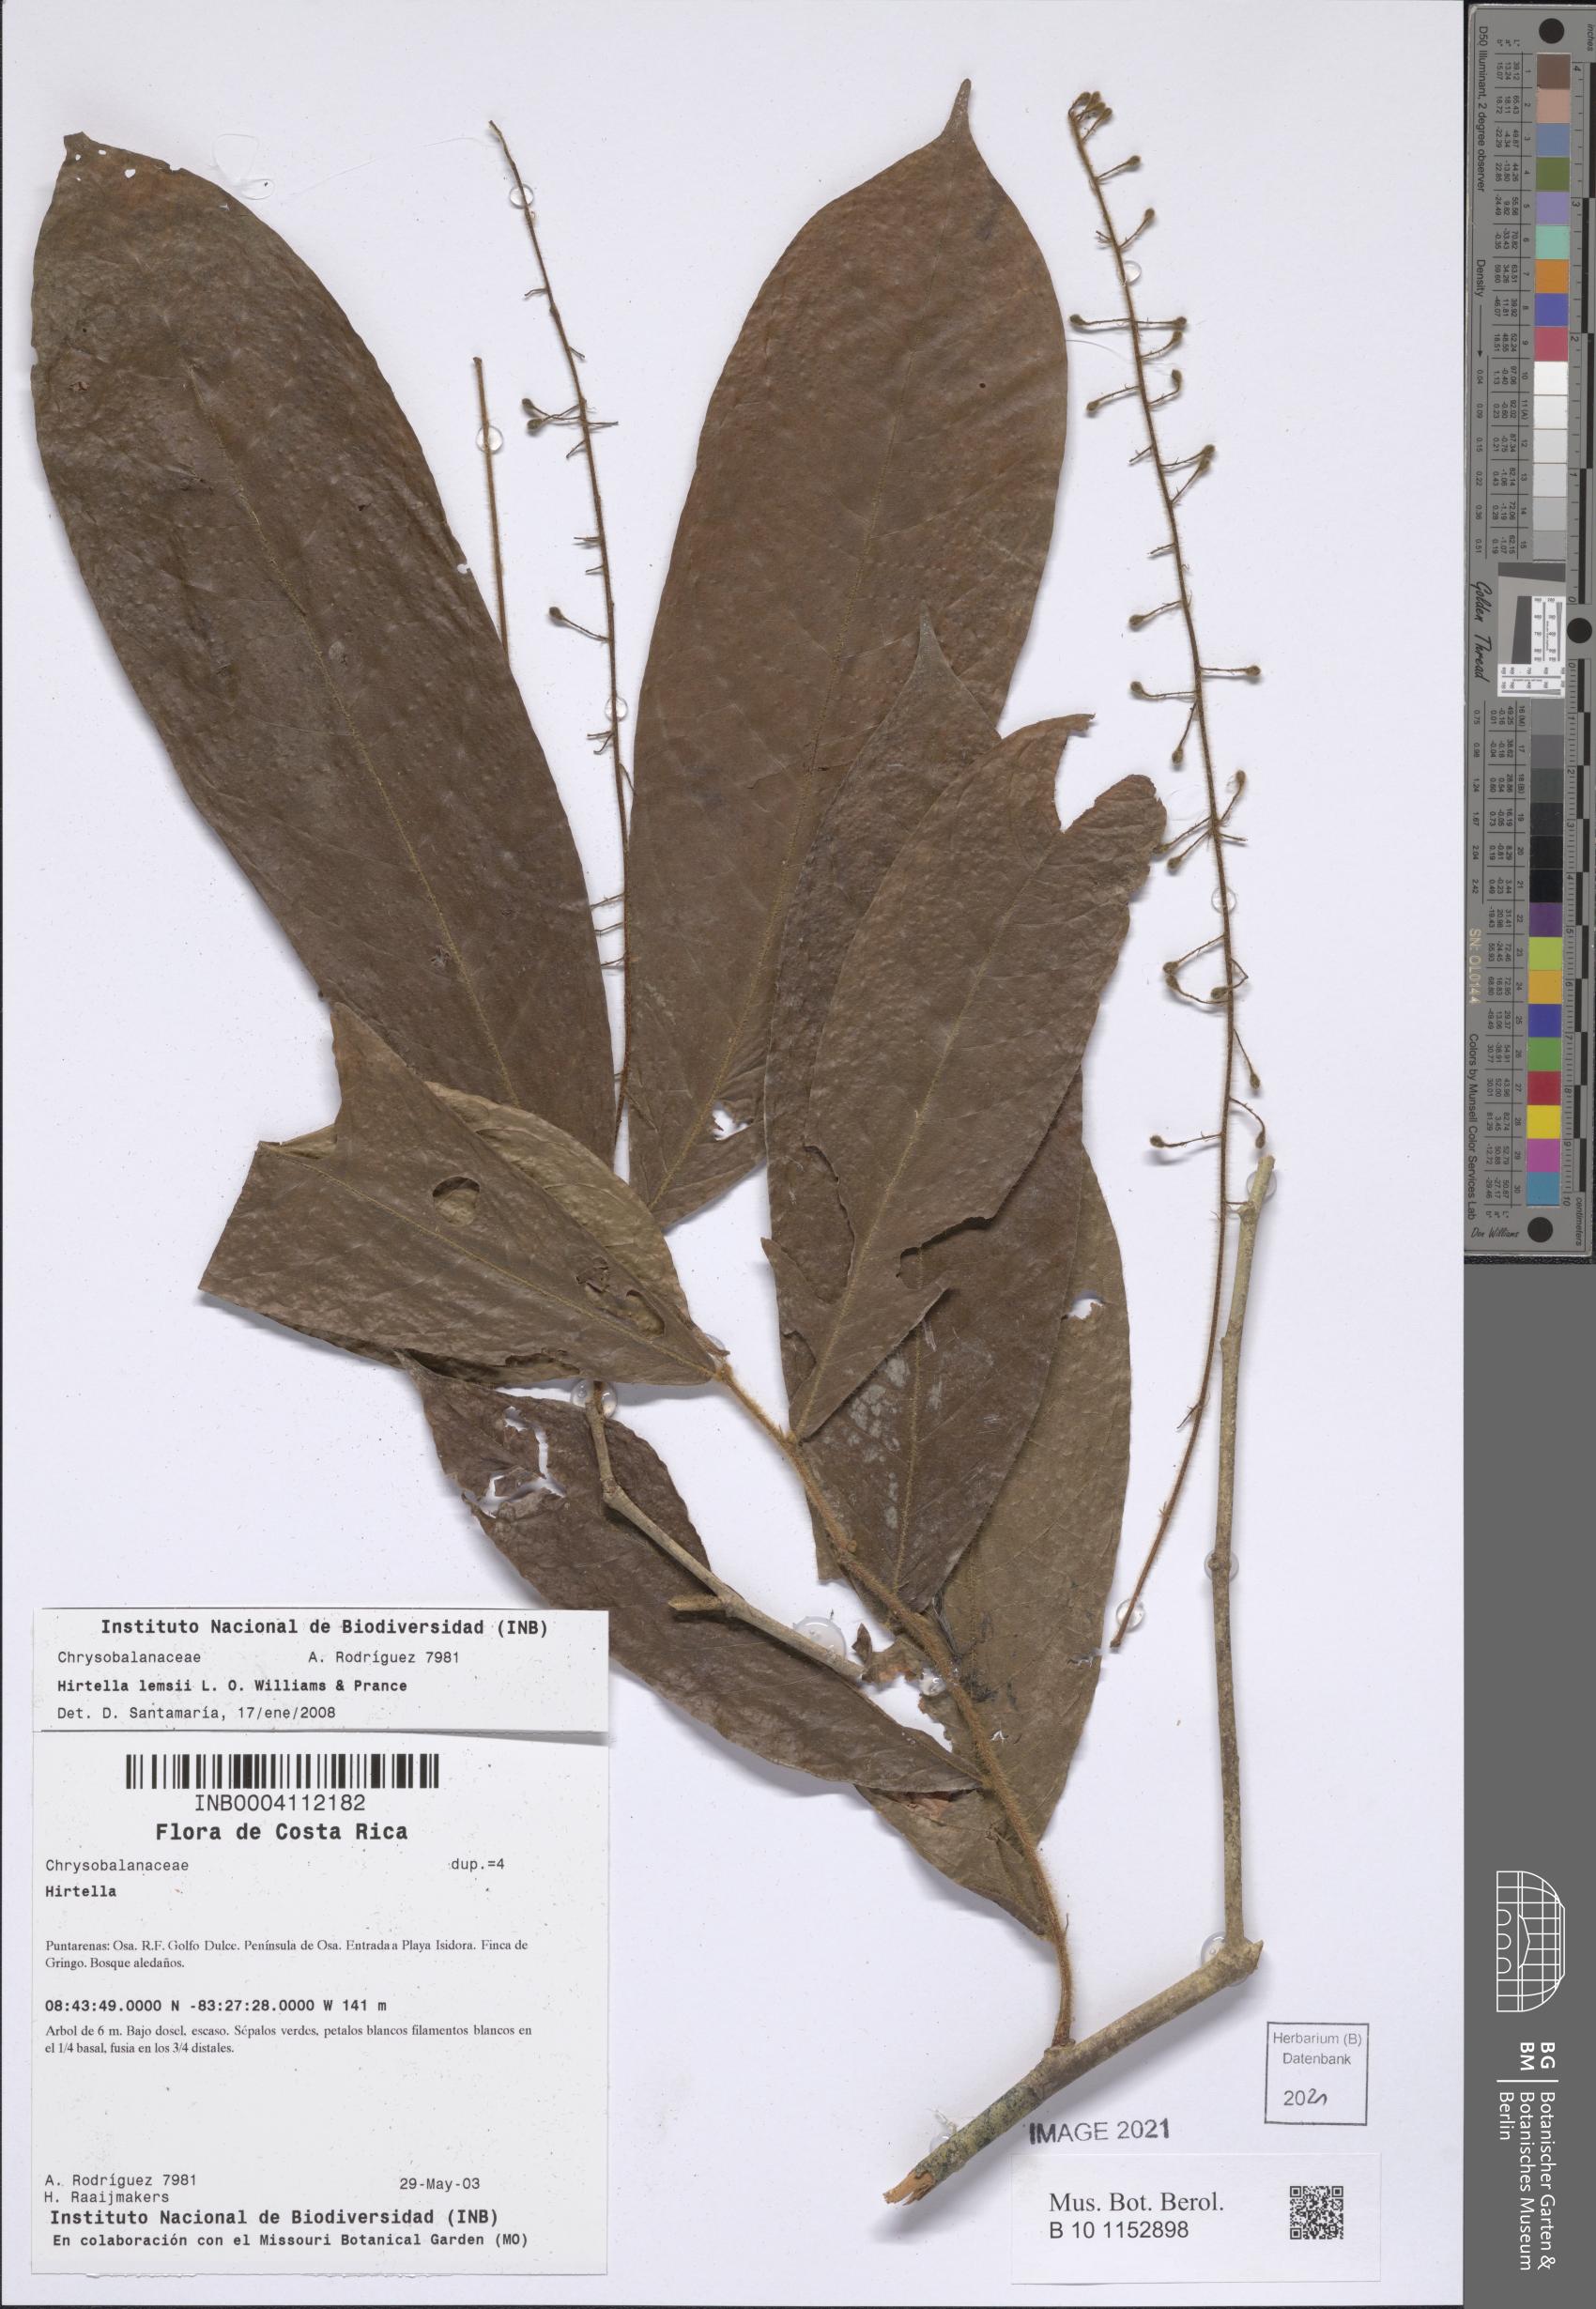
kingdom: Plantae
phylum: Tracheophyta
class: Magnoliopsida
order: Malpighiales
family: Chrysobalanaceae
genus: Hirtella
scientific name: Hirtella lemsii
